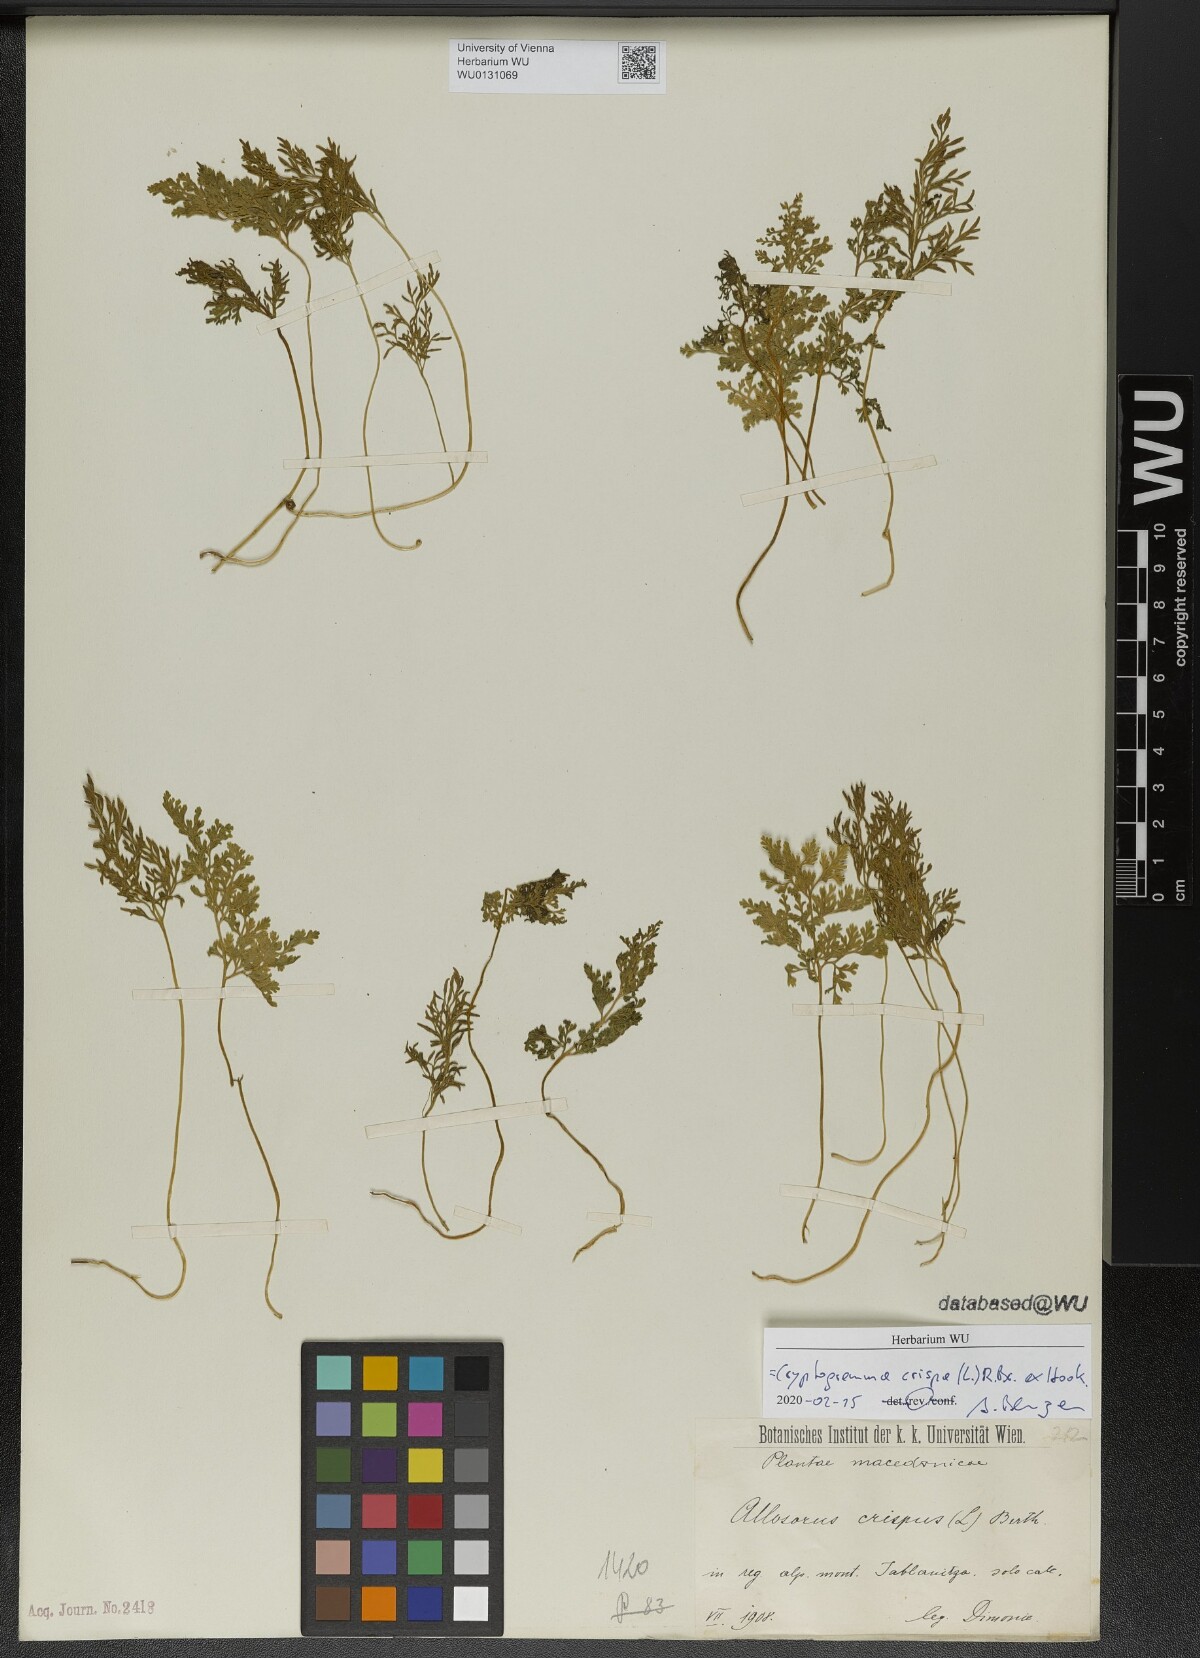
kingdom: Plantae
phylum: Tracheophyta
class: Polypodiopsida
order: Polypodiales
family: Pteridaceae
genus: Cryptogramma
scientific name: Cryptogramma crispa
